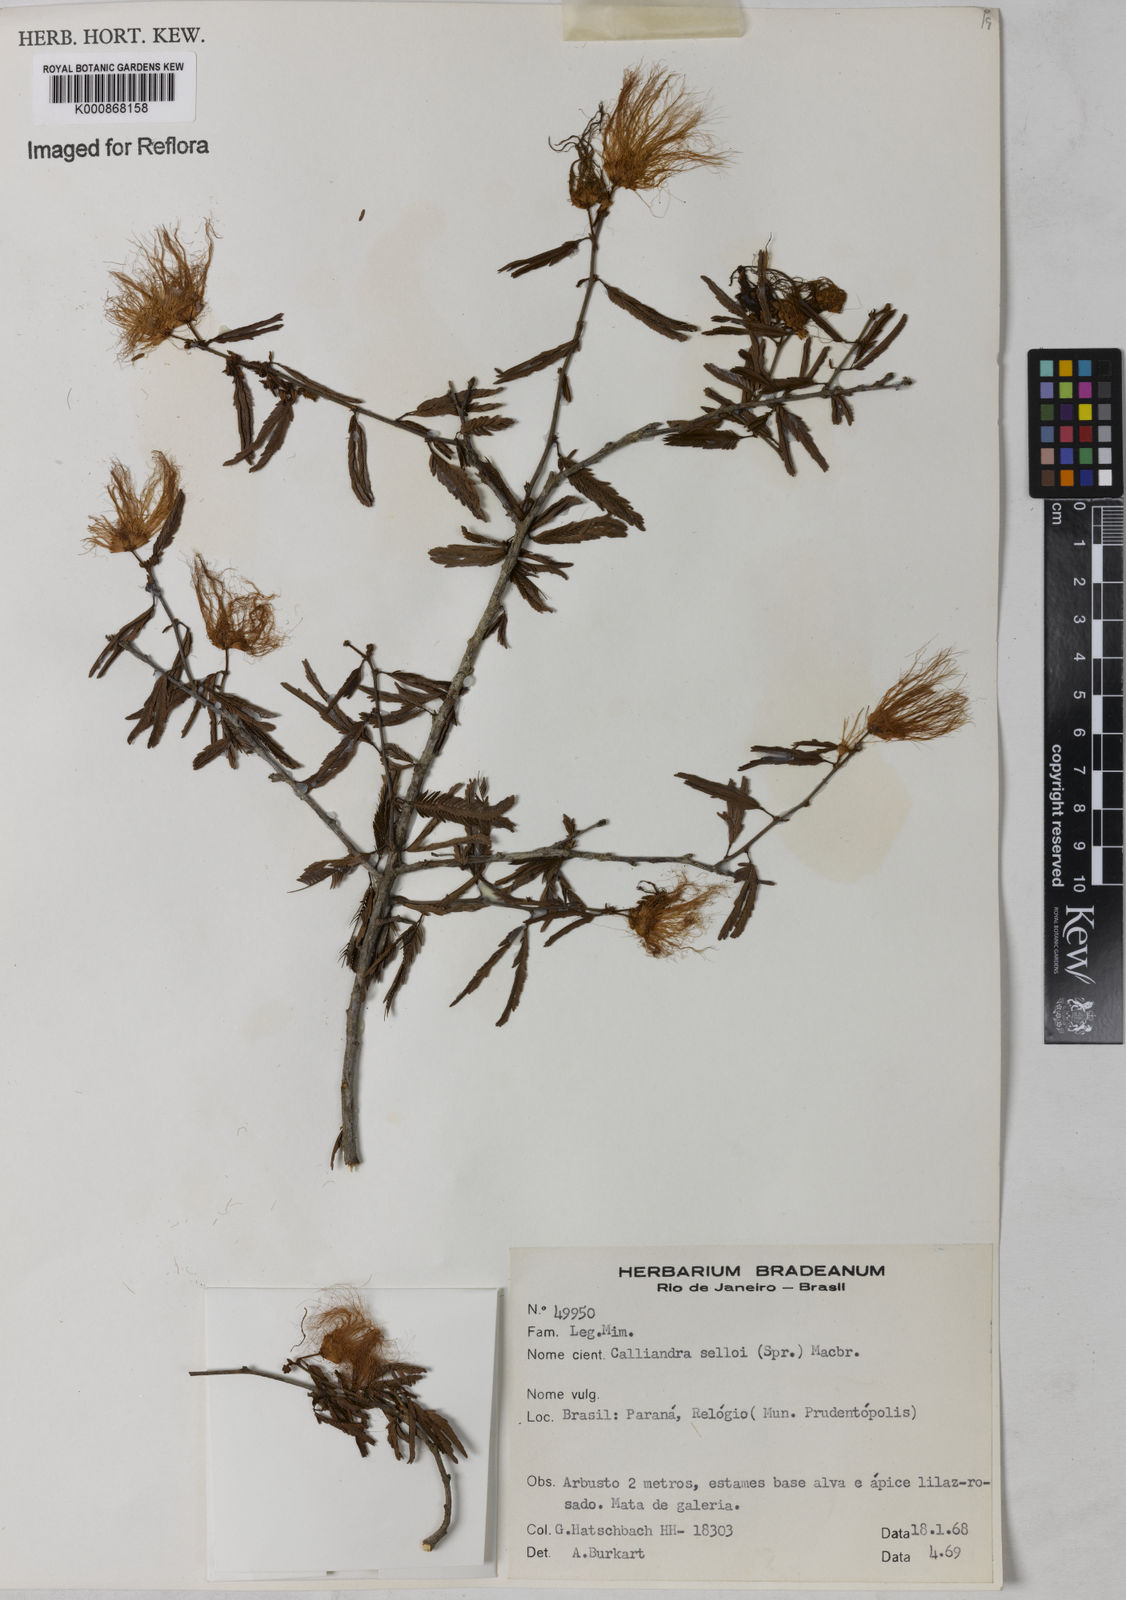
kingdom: Plantae
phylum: Tracheophyta
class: Magnoliopsida
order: Fabales
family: Fabaceae
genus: Calliandra
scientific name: Calliandra selloi
